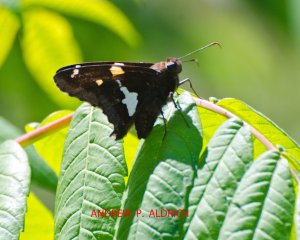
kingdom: Animalia
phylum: Arthropoda
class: Insecta
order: Lepidoptera
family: Hesperiidae
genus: Epargyreus
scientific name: Epargyreus clarus
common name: Silver-spotted Skipper
